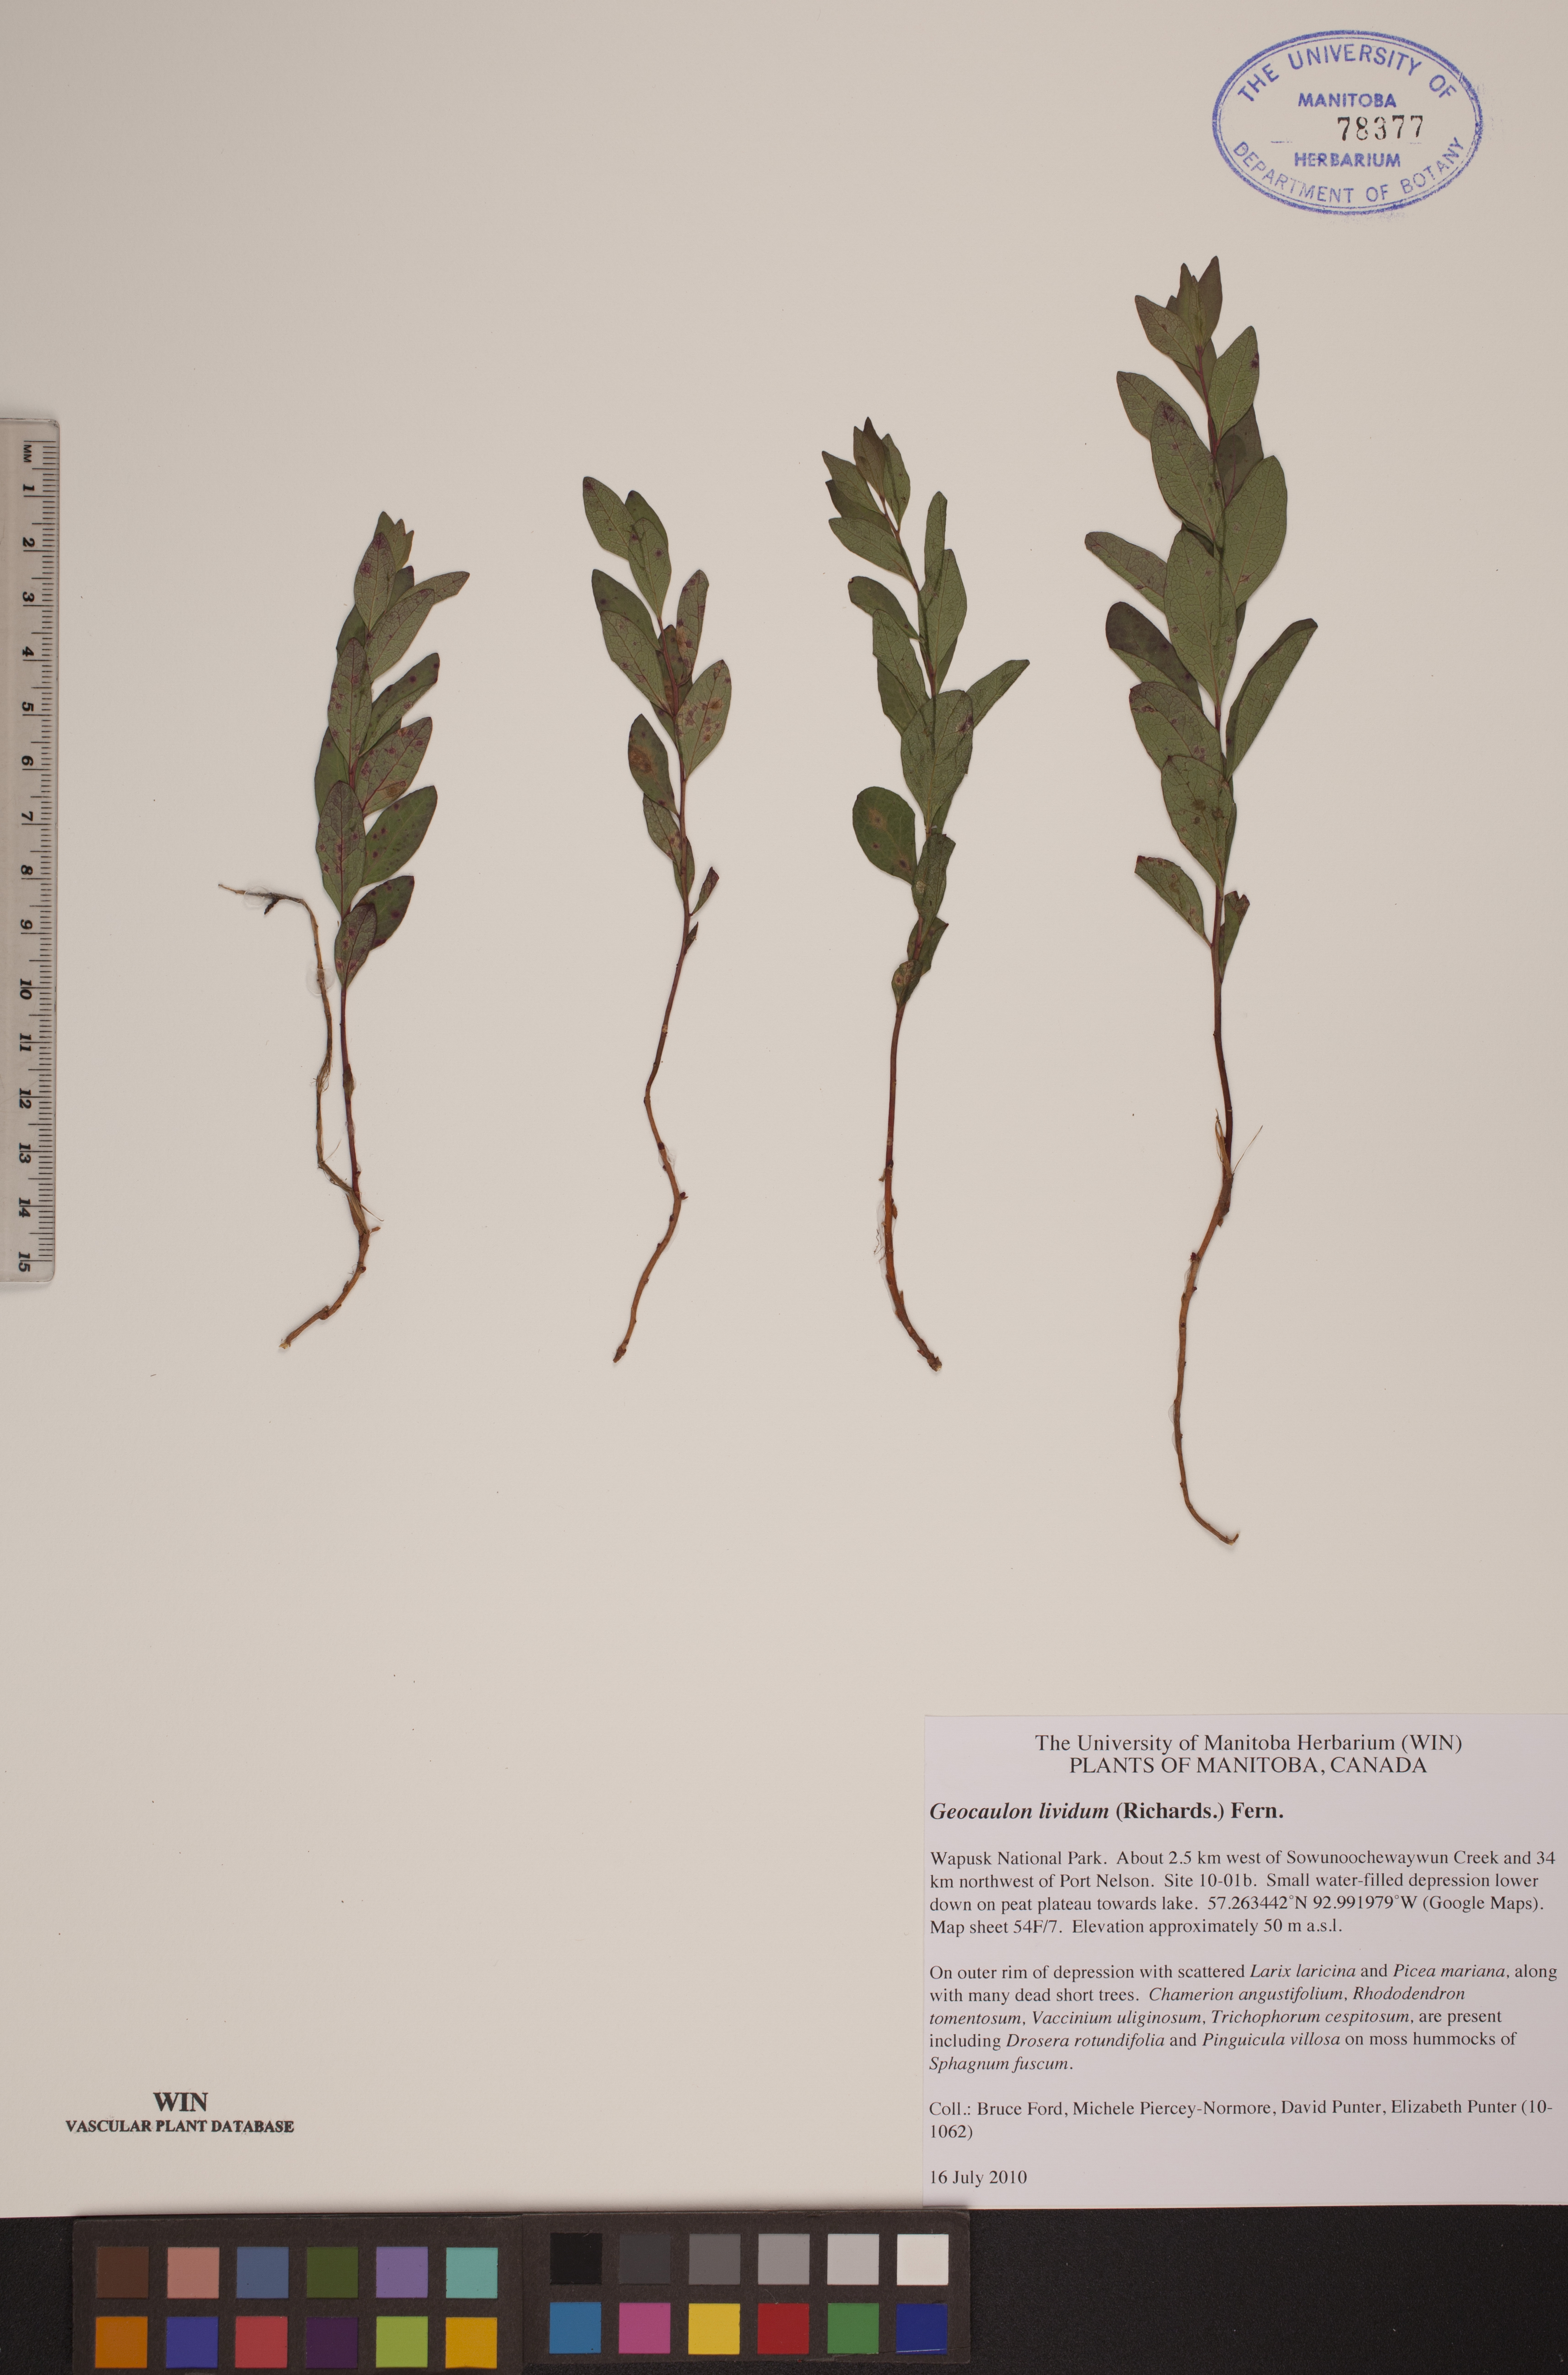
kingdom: Plantae
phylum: Tracheophyta
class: Magnoliopsida
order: Santalales
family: Comandraceae
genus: Geocaulon
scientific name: Geocaulon lividum
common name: Earthberry
